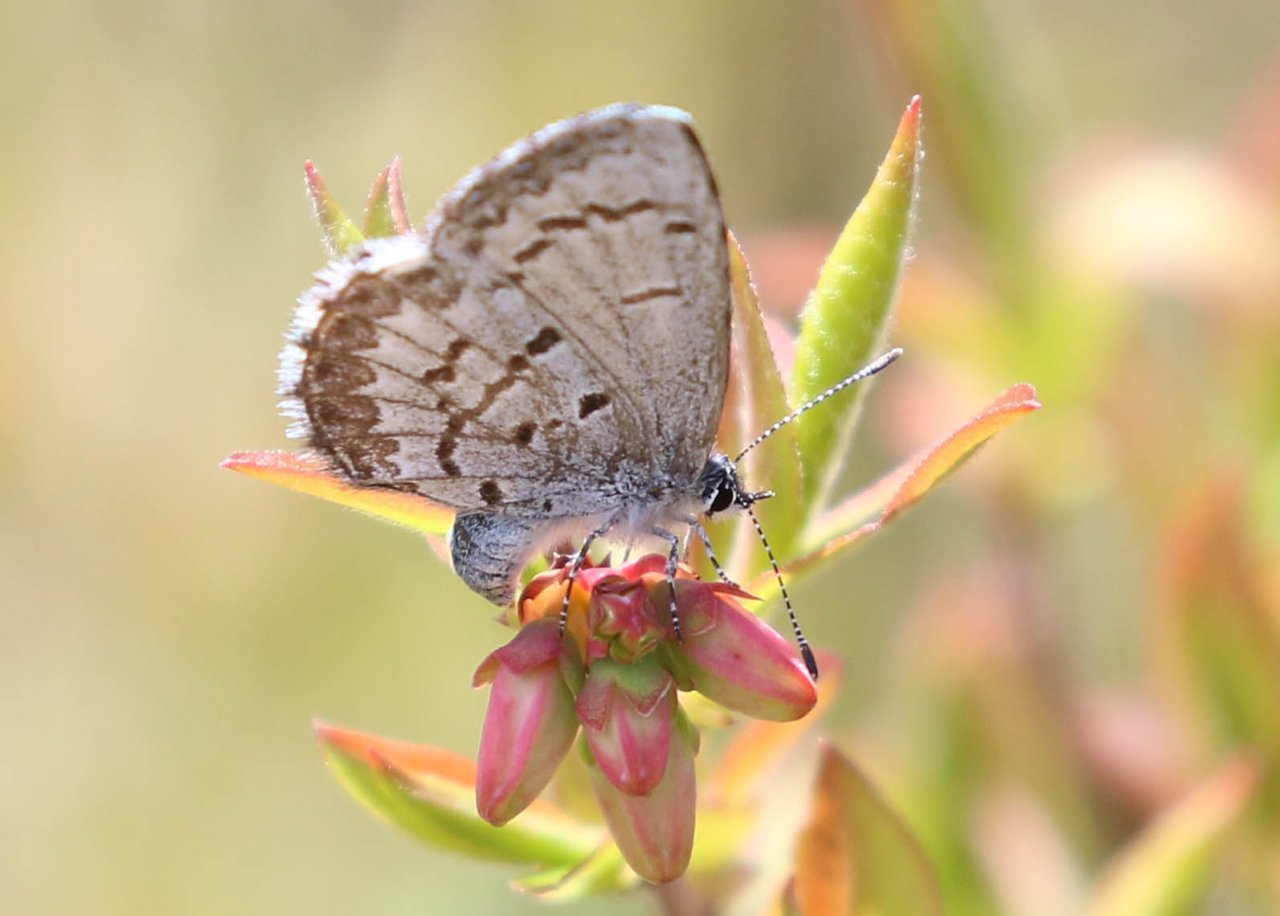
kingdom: Animalia
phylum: Arthropoda
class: Insecta
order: Lepidoptera
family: Lycaenidae
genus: Celastrina
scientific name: Celastrina lucia
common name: Northern Spring Azure
